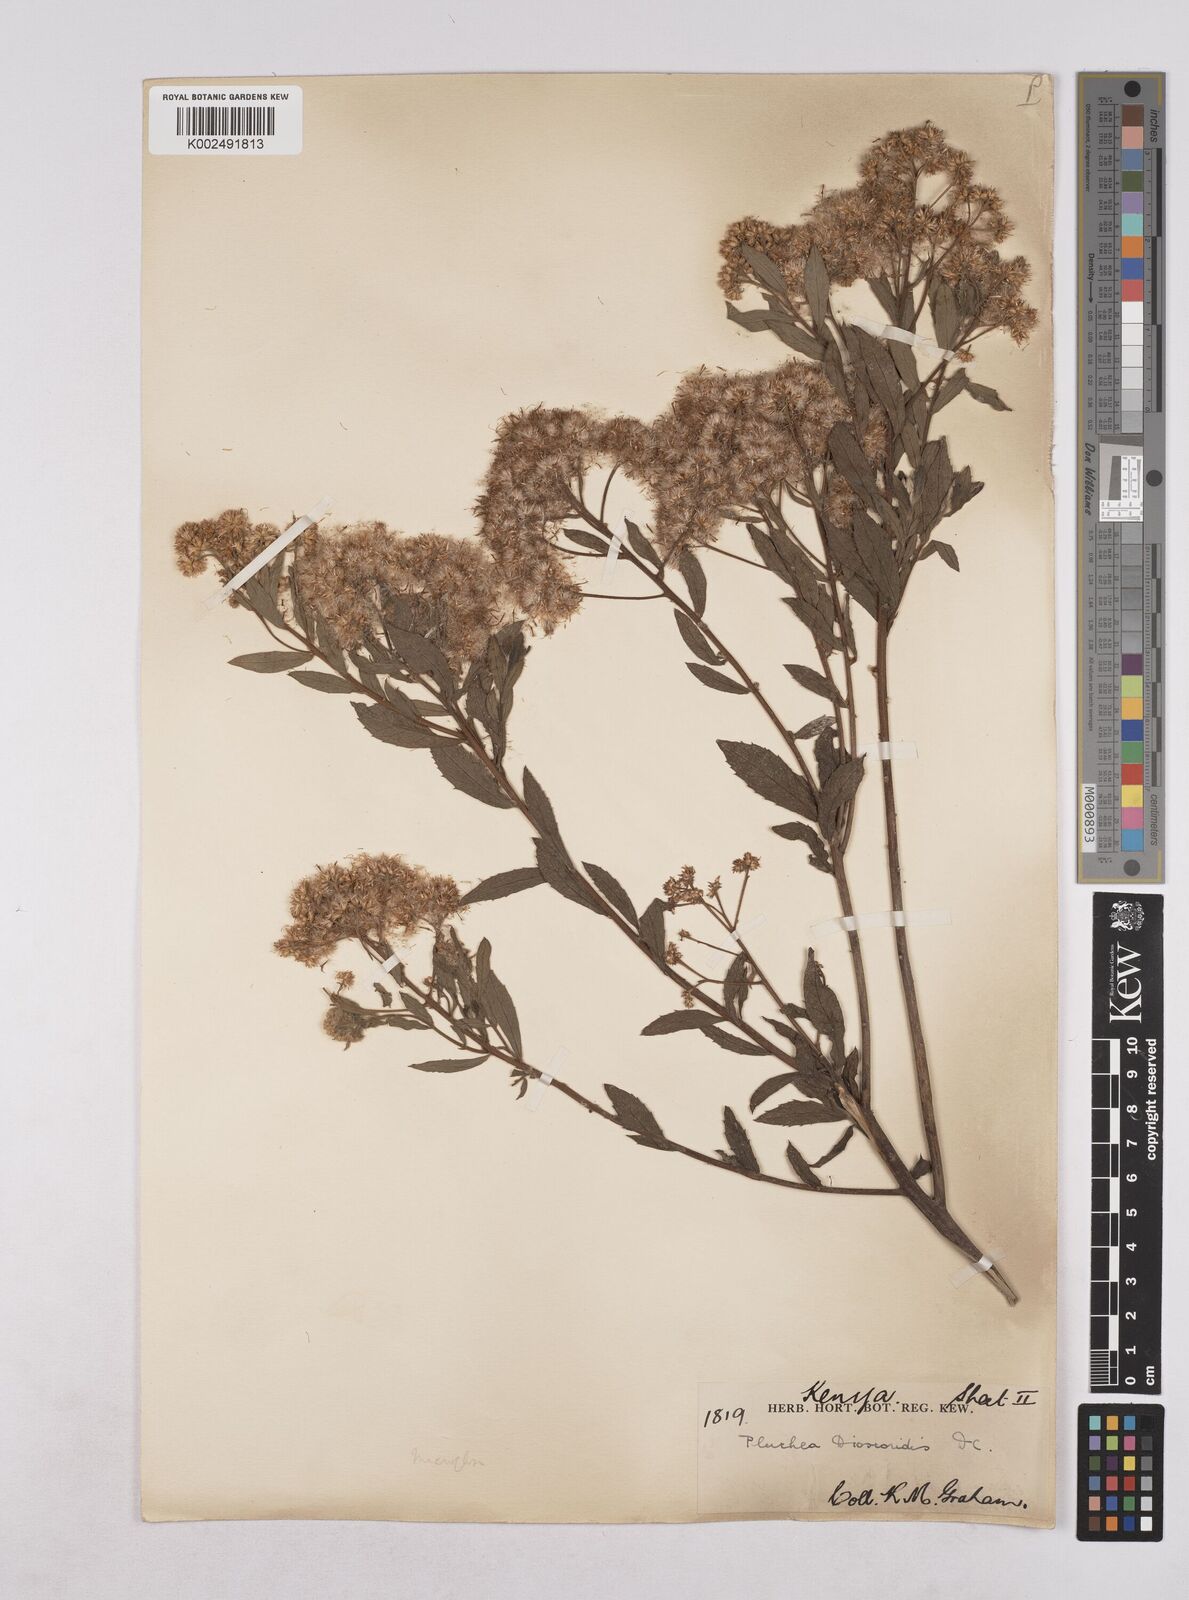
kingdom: Plantae
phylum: Tracheophyta
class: Magnoliopsida
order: Asterales
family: Asteraceae
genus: Pluchea
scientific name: Pluchea dioscoridis
